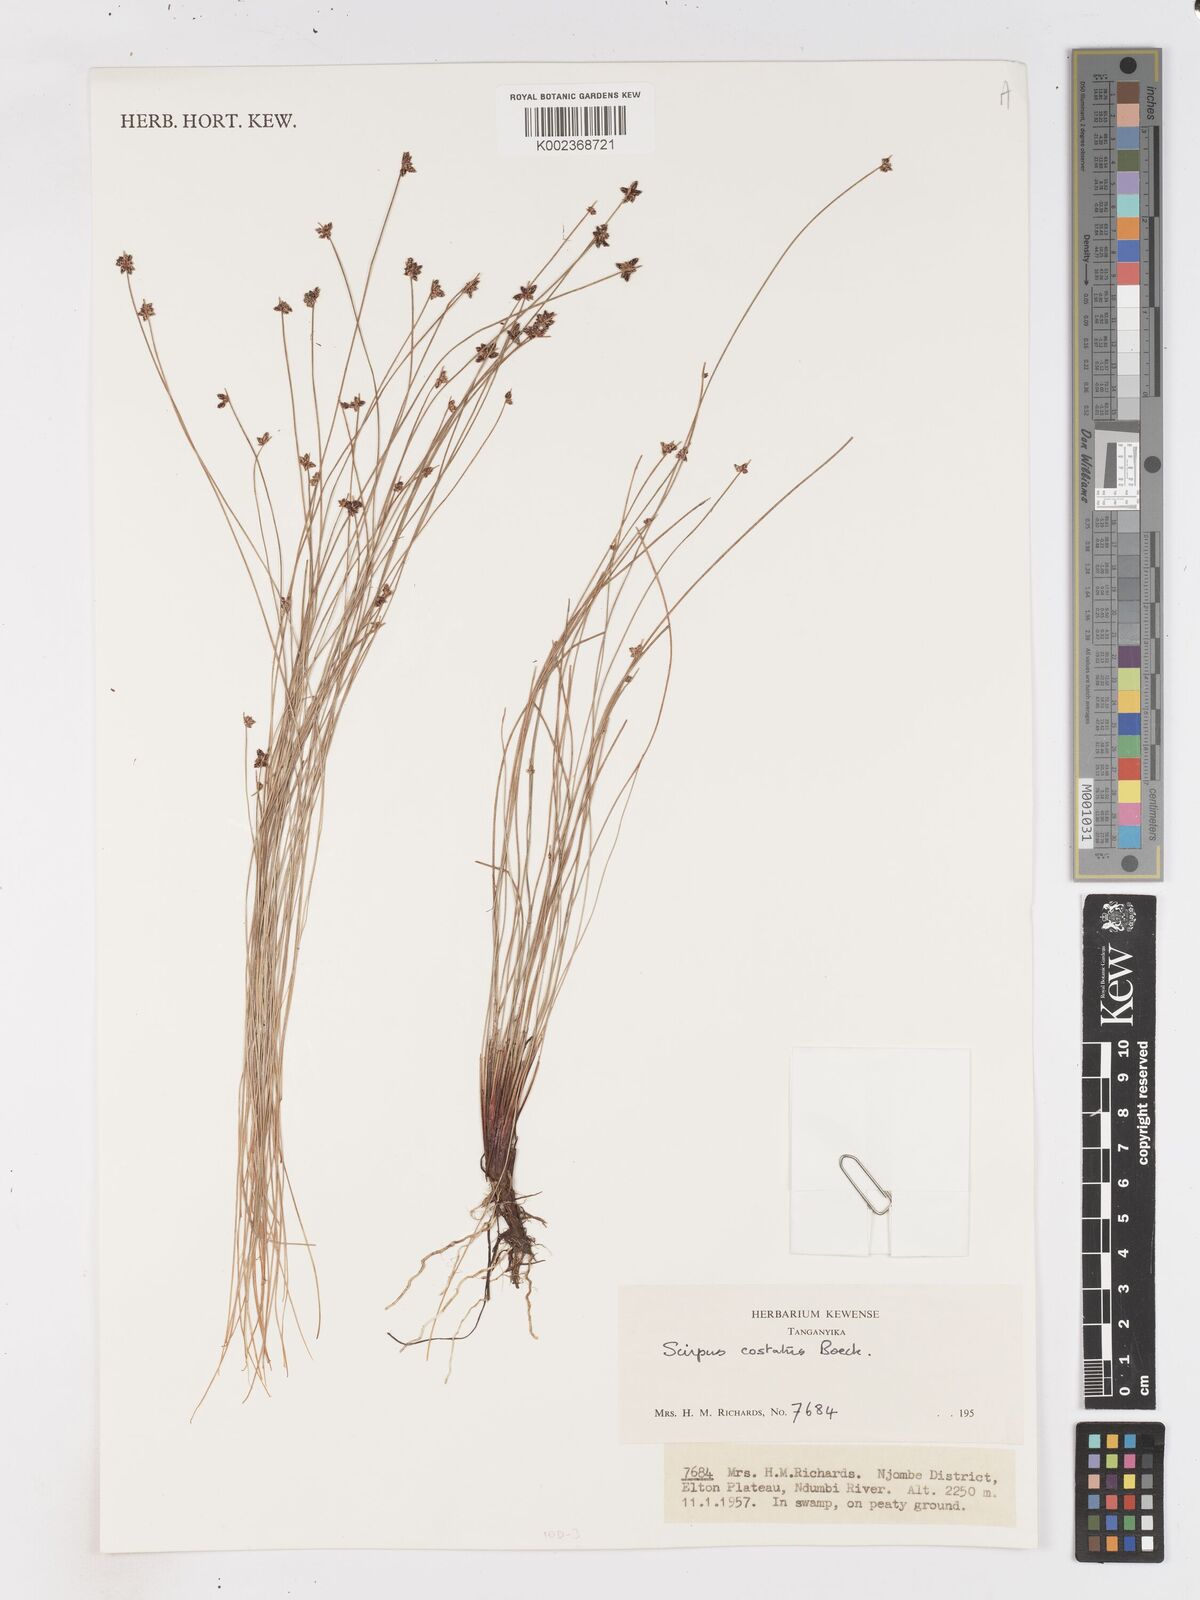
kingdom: Plantae
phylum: Tracheophyta
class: Liliopsida
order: Poales
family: Cyperaceae
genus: Isolepis
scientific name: Isolepis costata
